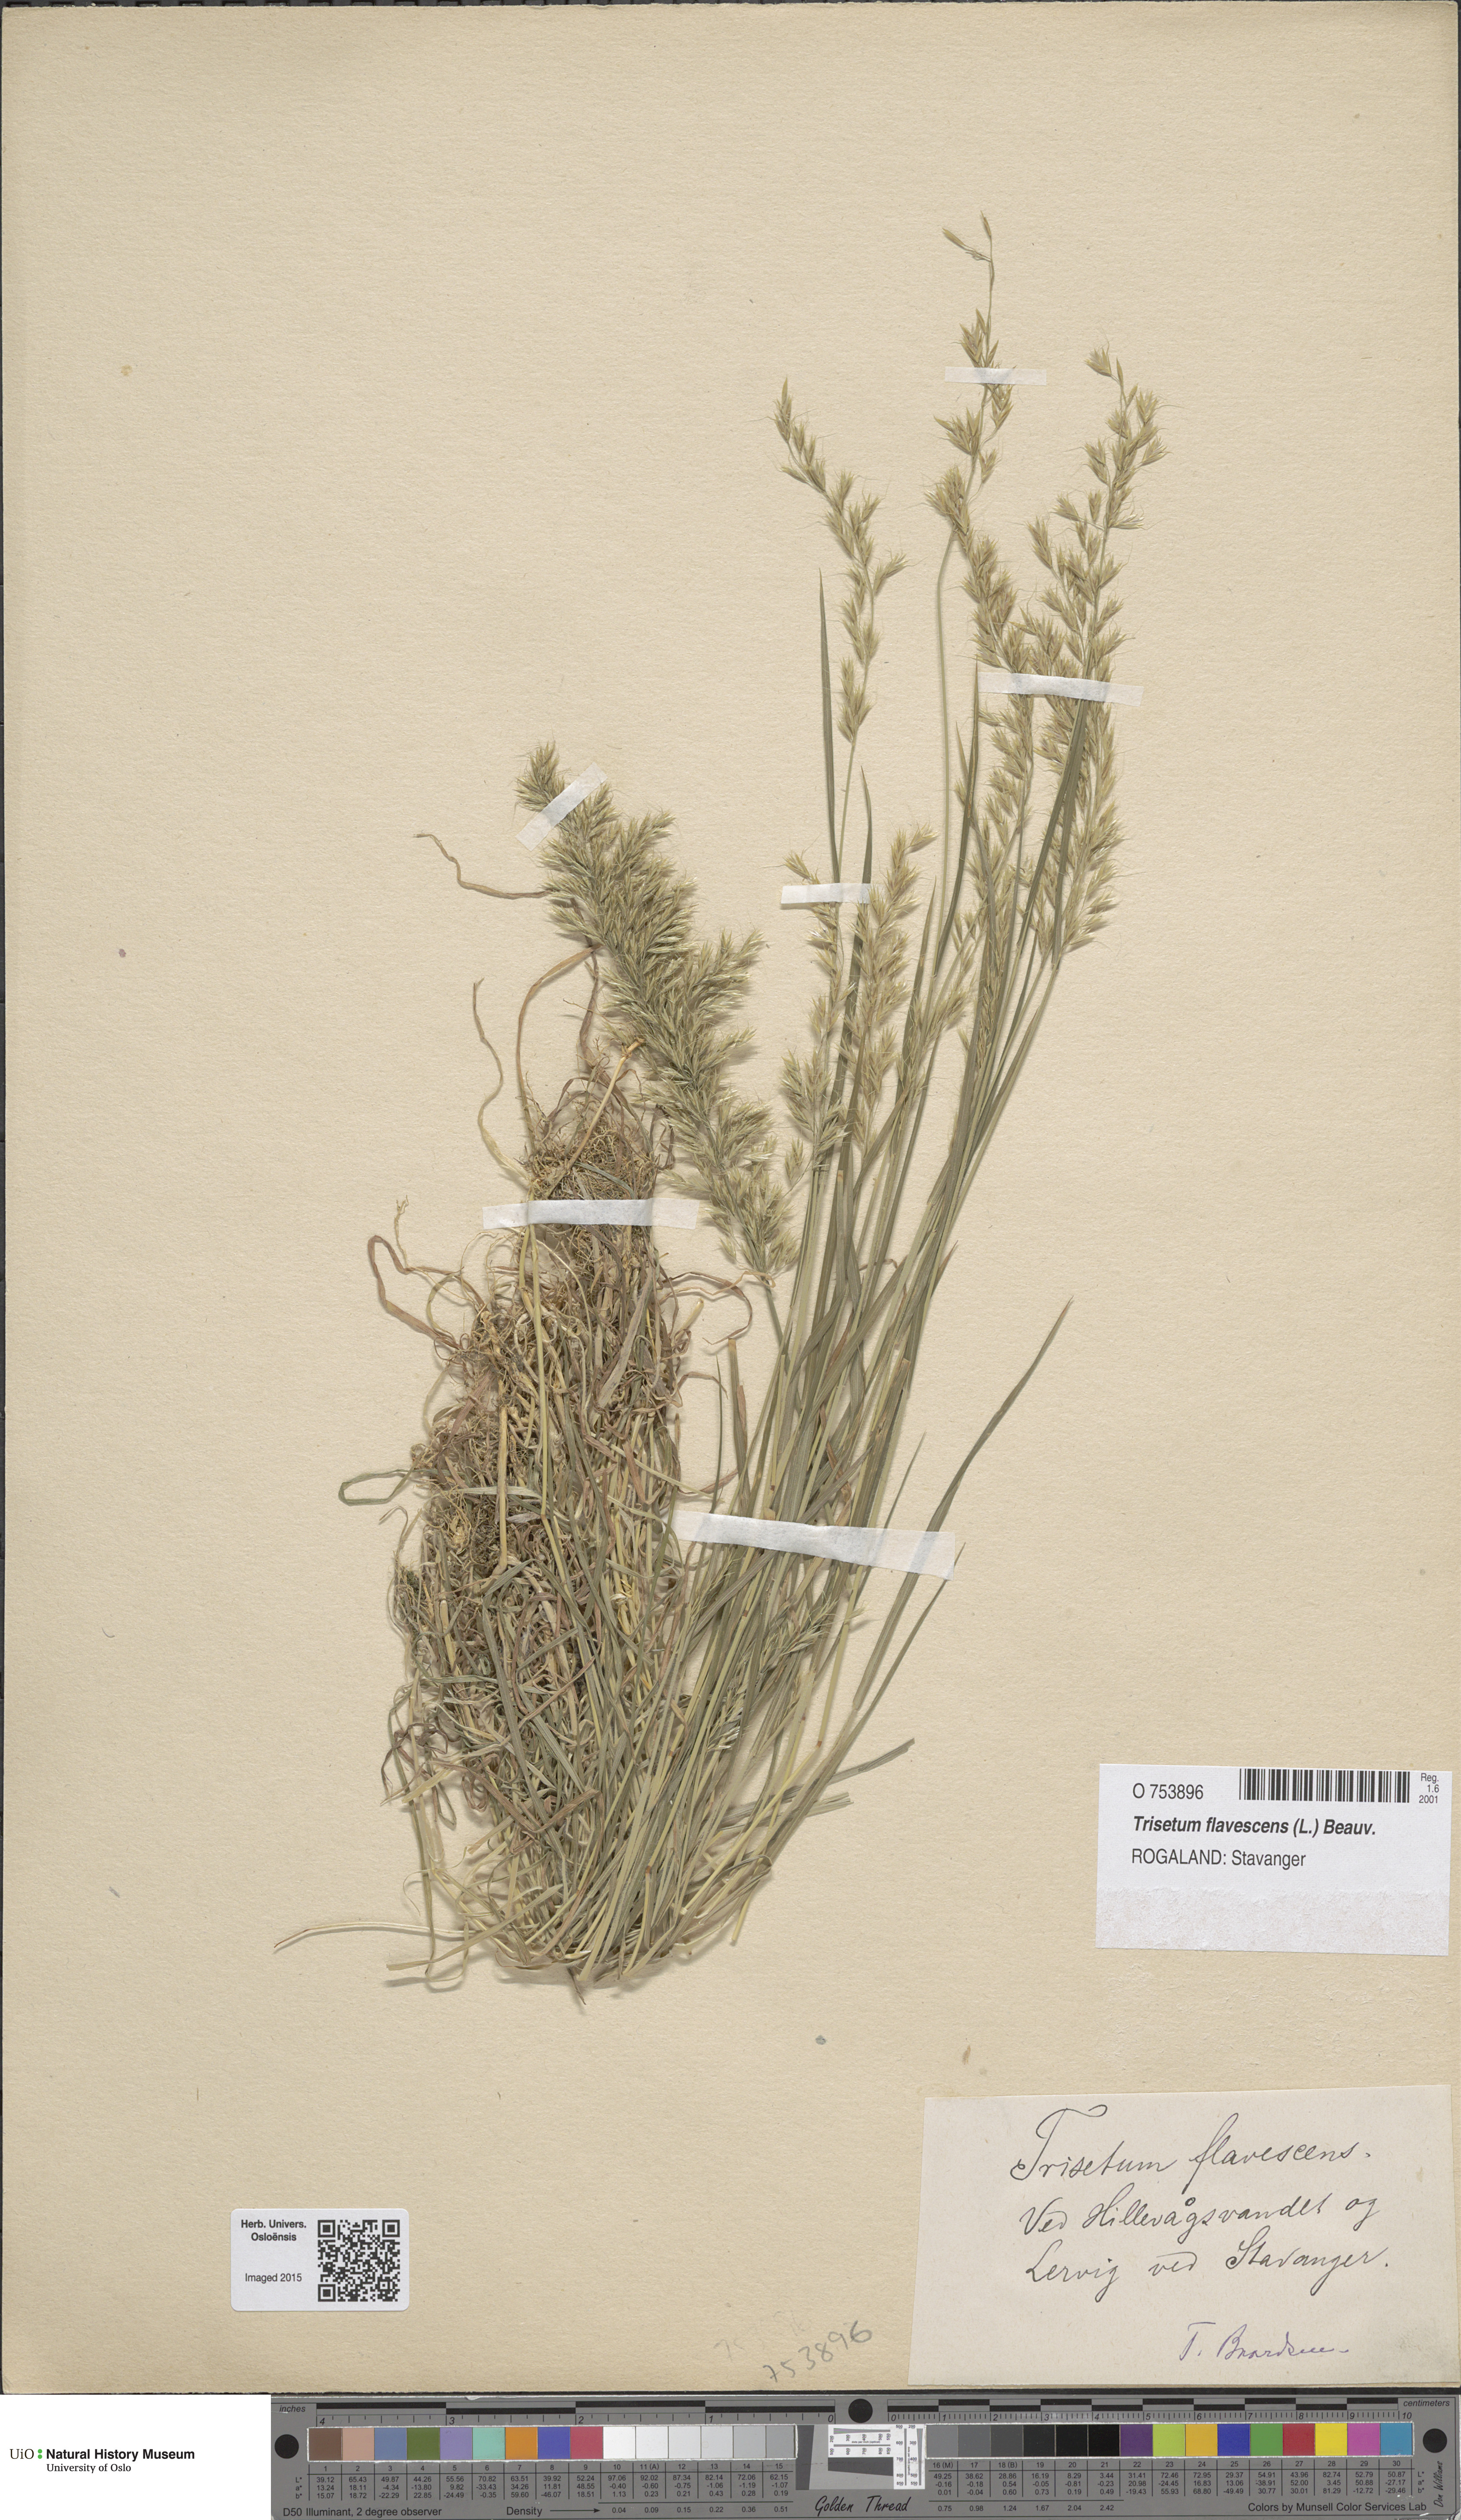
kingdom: Plantae
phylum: Tracheophyta
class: Liliopsida
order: Poales
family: Poaceae
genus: Trisetum
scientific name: Trisetum flavescens
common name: Yellow oat-grass
